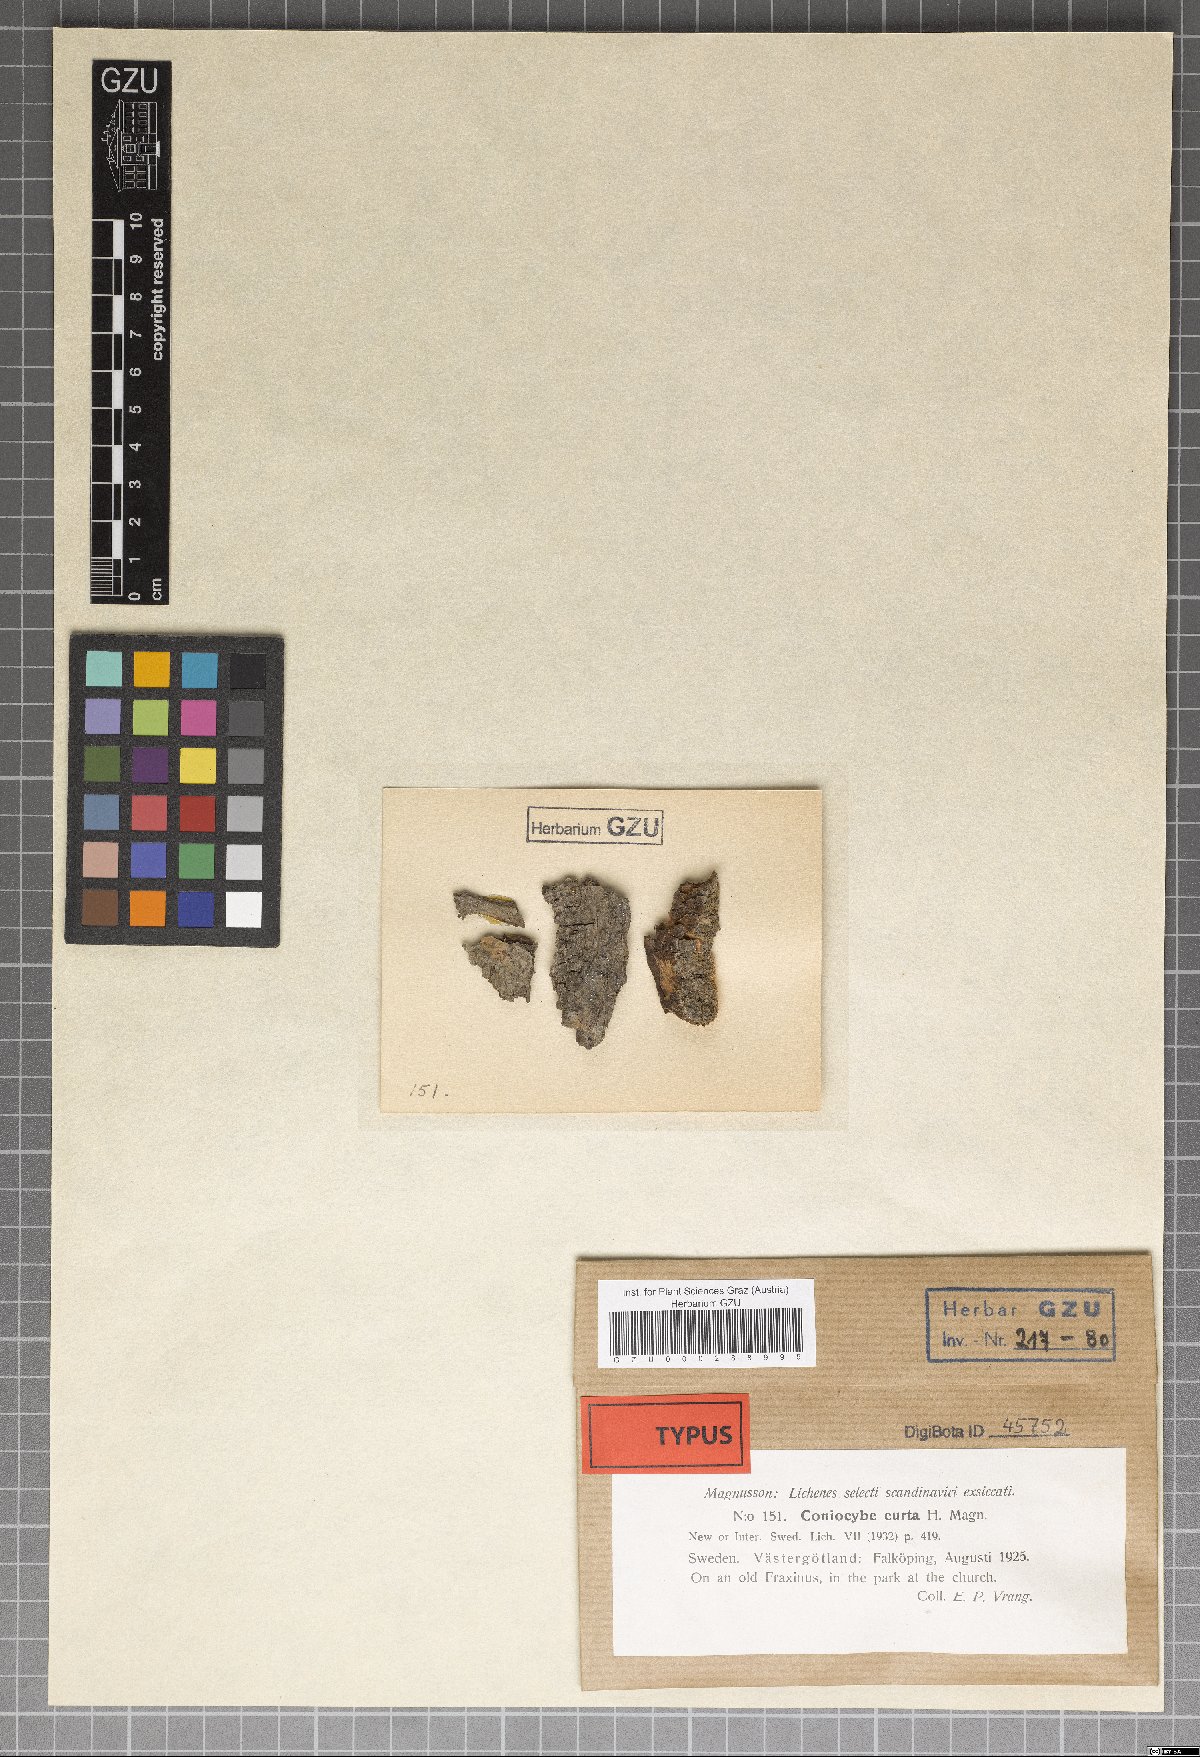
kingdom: Fungi
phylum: Ascomycota
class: Coniocybomycetes
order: Coniocybales
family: Coniocybaceae
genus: Sclerophora
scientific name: Sclerophora pallida
